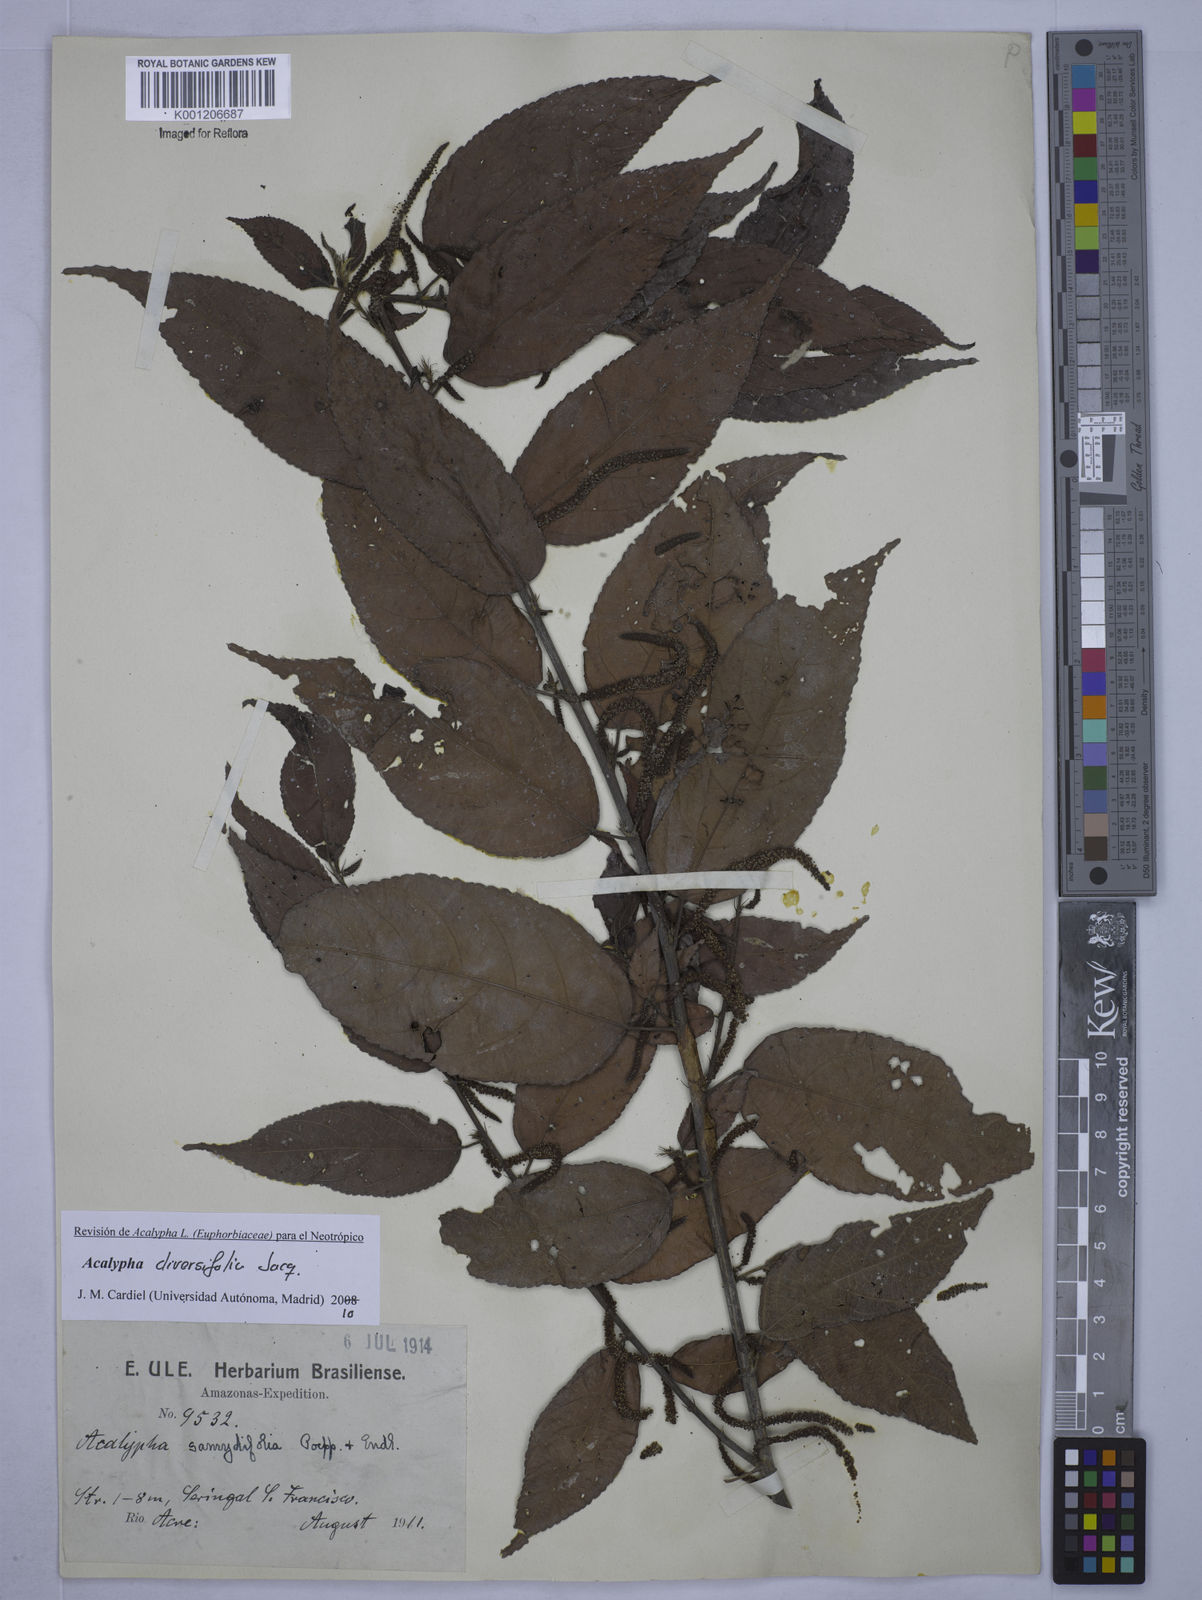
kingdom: Plantae
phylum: Tracheophyta
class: Magnoliopsida
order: Malpighiales
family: Euphorbiaceae
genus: Acalypha
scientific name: Acalypha diversifolia
